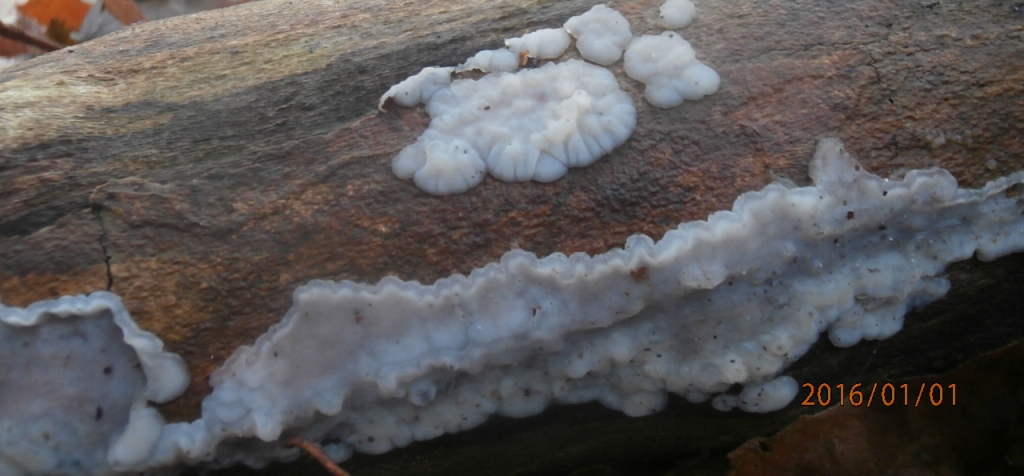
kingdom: Fungi
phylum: Basidiomycota
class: Agaricomycetes
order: Auriculariales
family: Auriculariaceae
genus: Exidia
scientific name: Exidia thuretiana
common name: hvidlig bævretop
